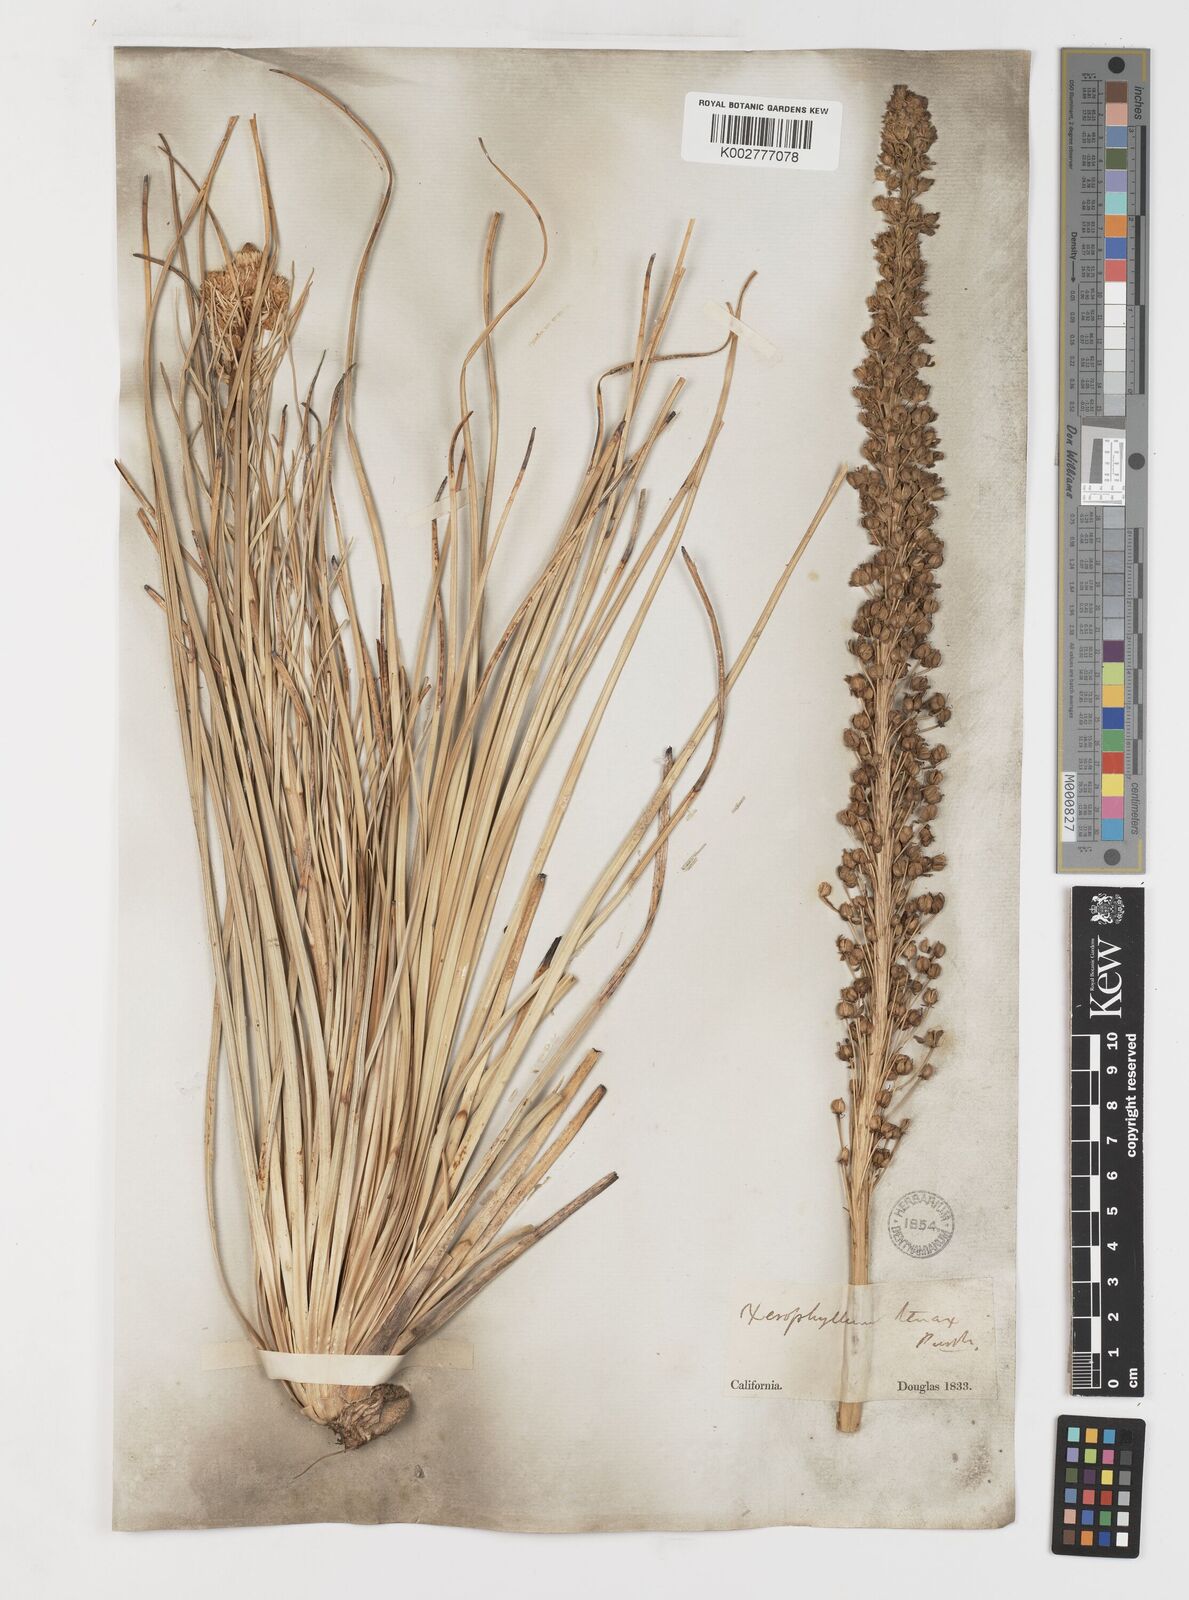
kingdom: Plantae
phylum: Tracheophyta
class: Liliopsida
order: Liliales
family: Melanthiaceae
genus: Xerophyllum
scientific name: Xerophyllum tenax
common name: Bear-grass
